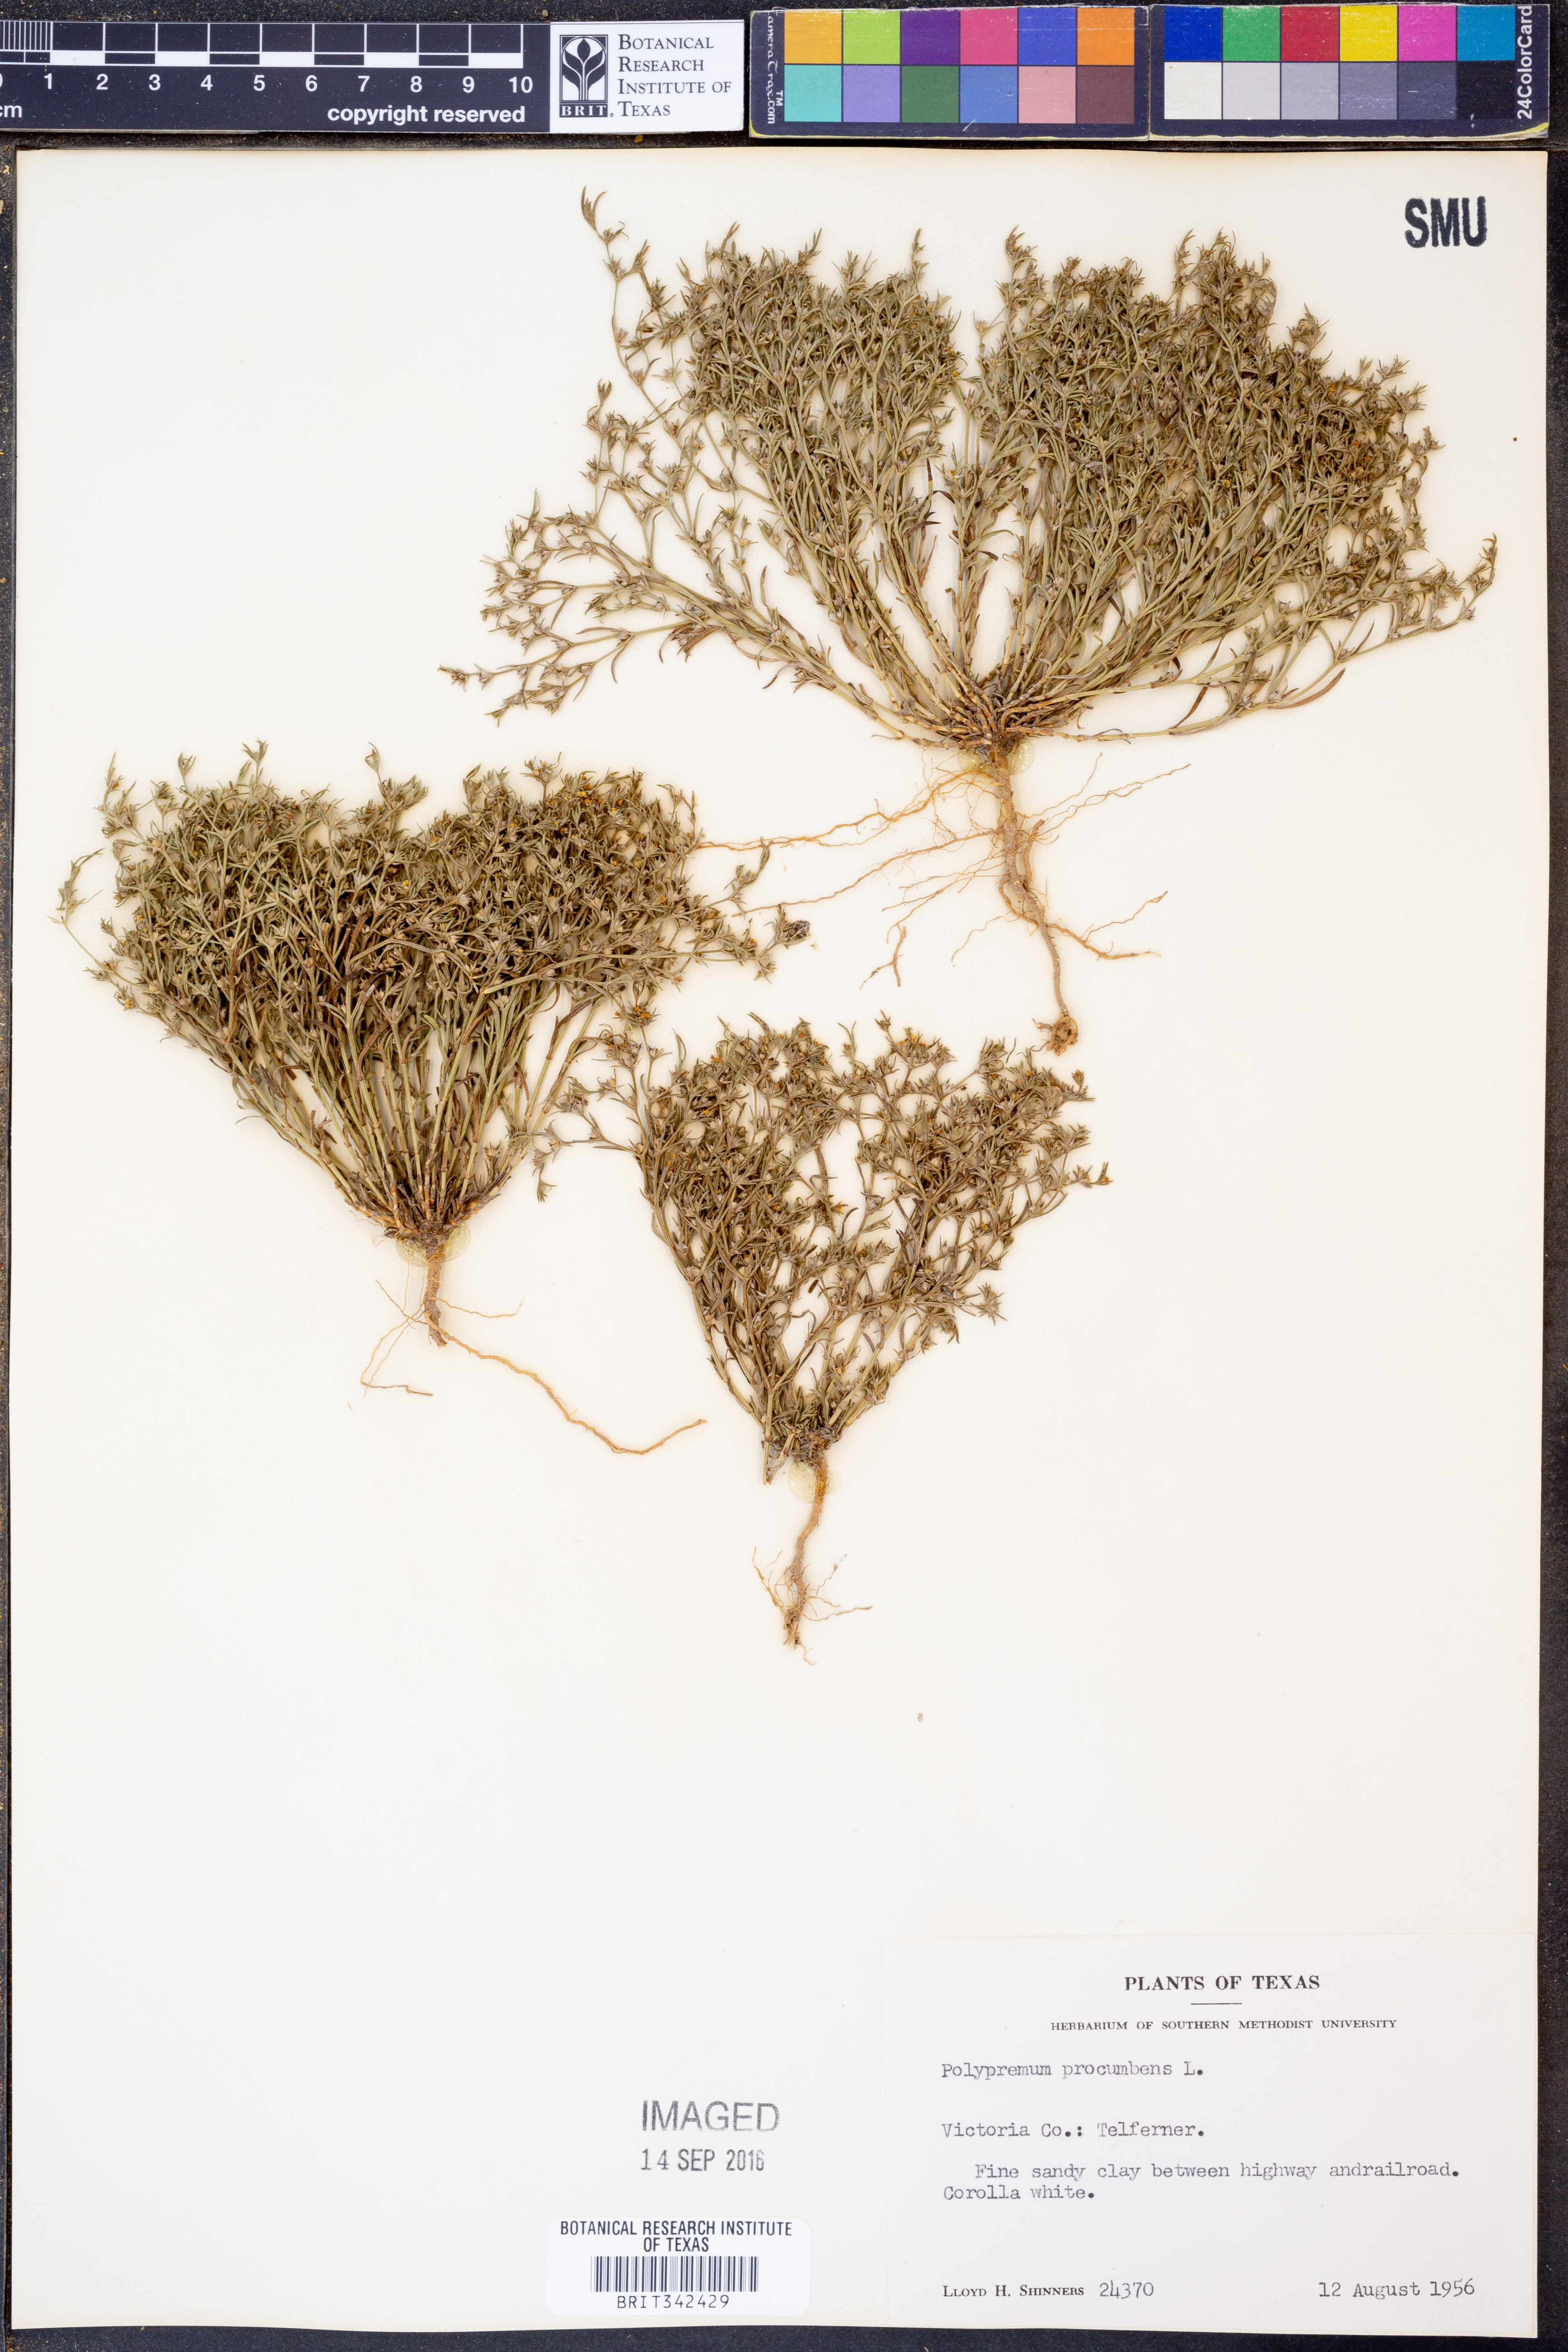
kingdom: Plantae
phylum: Tracheophyta
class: Magnoliopsida
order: Lamiales
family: Tetrachondraceae
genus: Polypremum
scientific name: Polypremum procumbens
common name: Juniper-leaf
